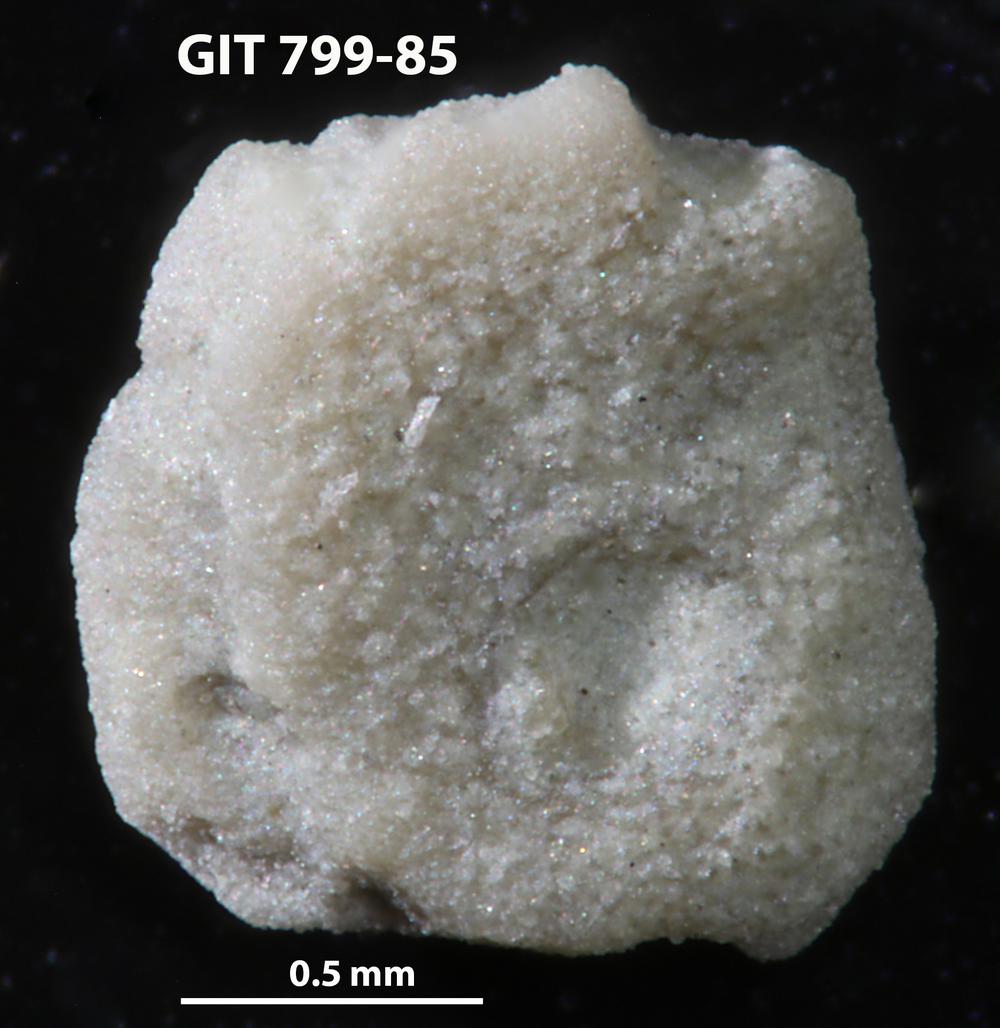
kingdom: Animalia
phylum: Echinodermata
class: Echinoidea
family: Lepidocentridae
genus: Aptilechinus
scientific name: Aptilechinus
